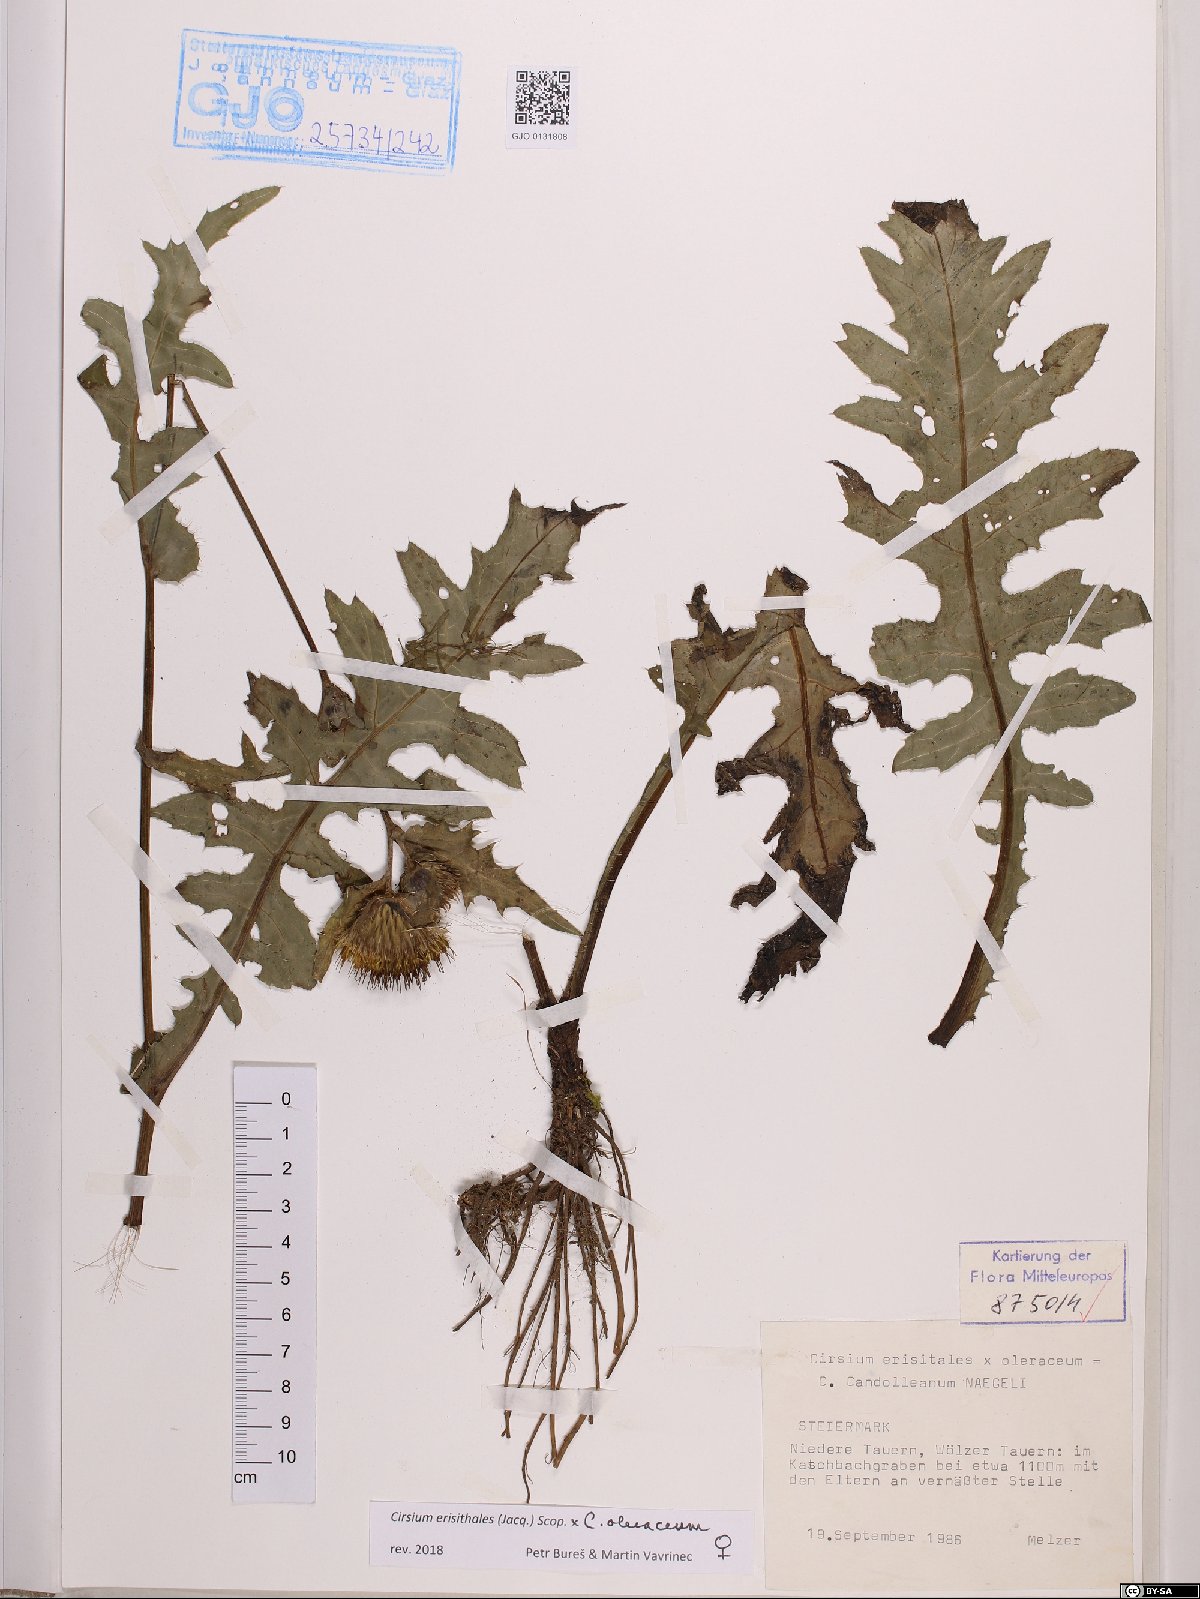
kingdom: Plantae
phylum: Tracheophyta
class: Magnoliopsida
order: Asterales
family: Asteraceae
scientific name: Asteraceae
